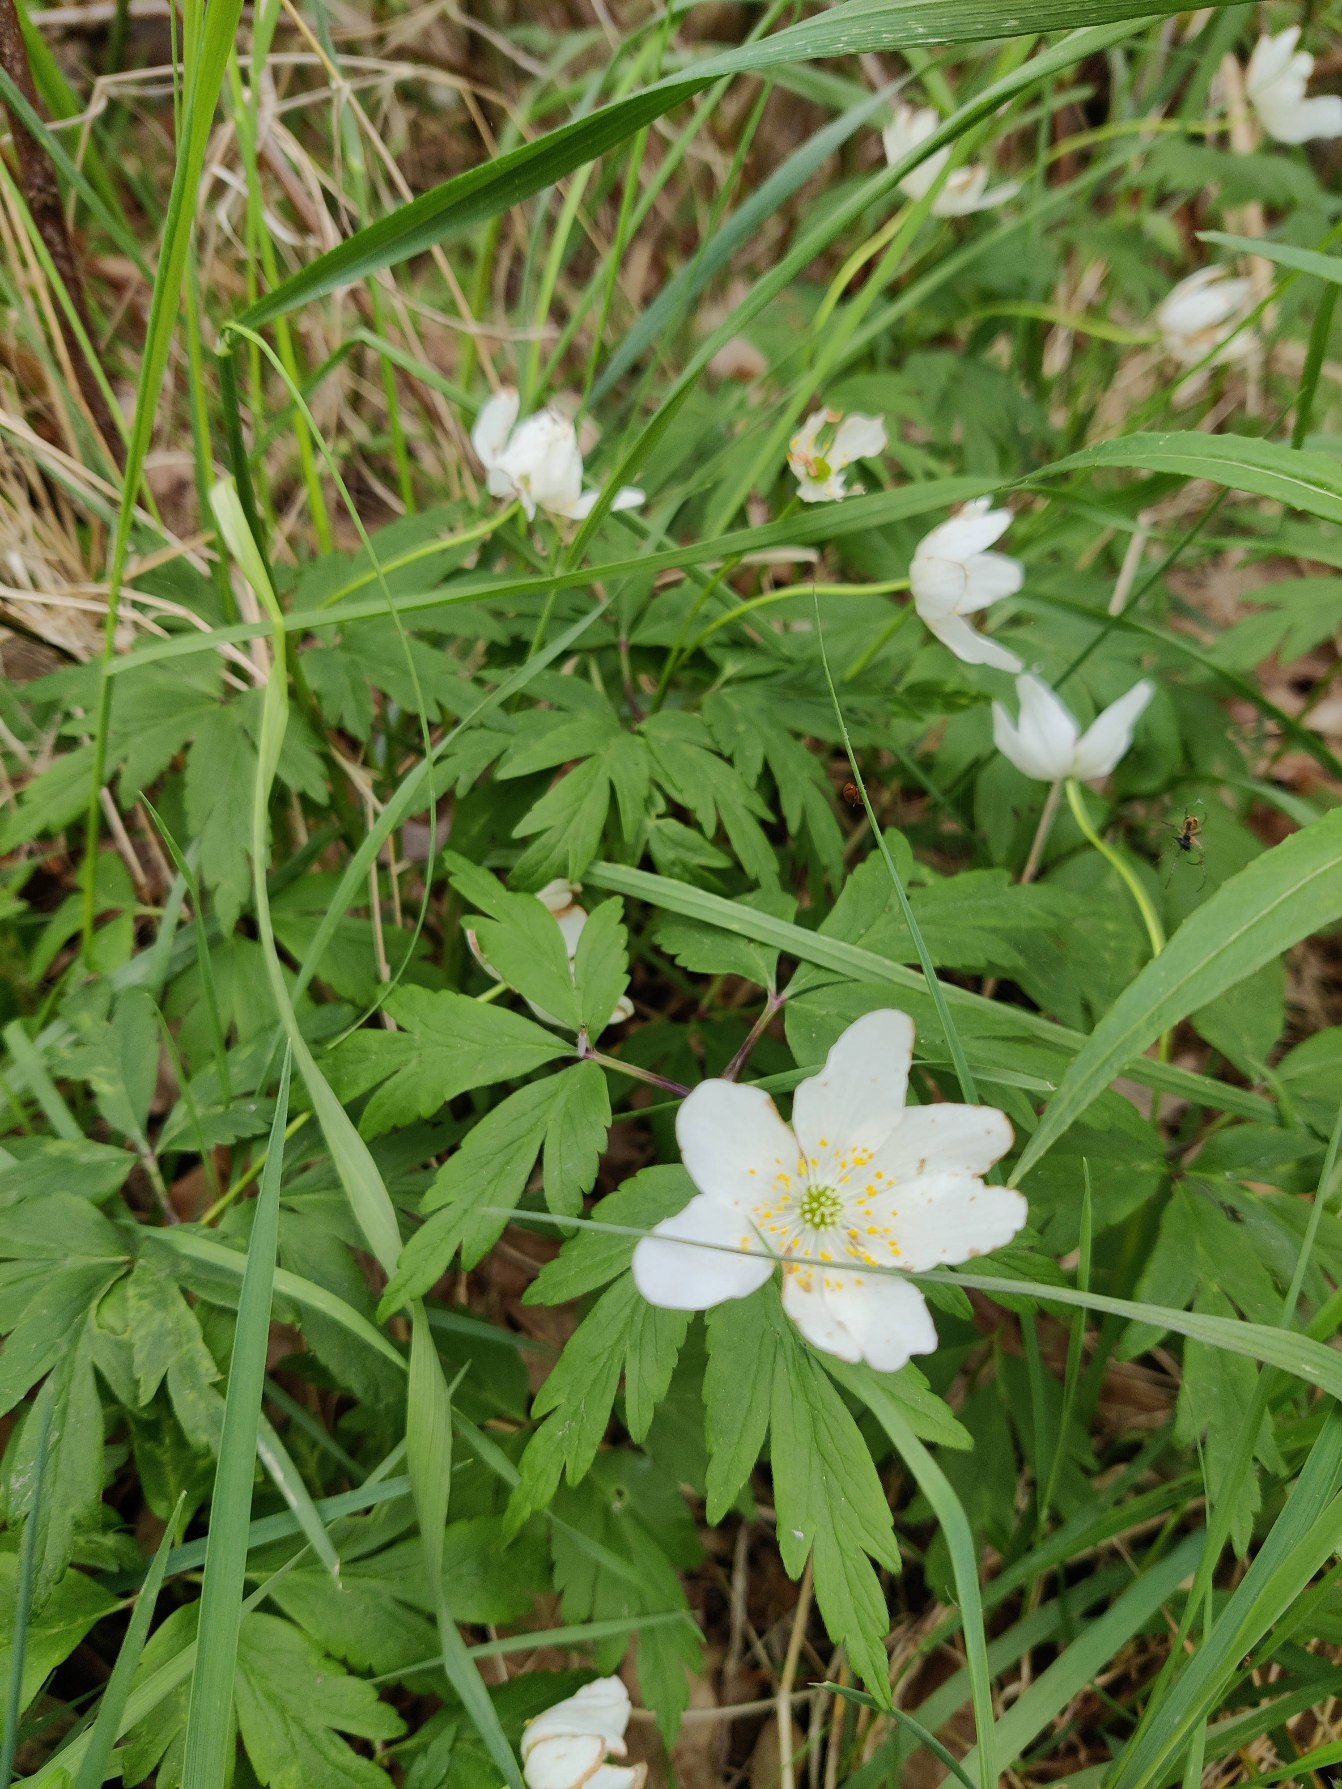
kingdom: Plantae
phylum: Tracheophyta
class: Magnoliopsida
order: Ranunculales
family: Ranunculaceae
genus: Anemone
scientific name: Anemone nemorosa
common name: Hvid anemone
